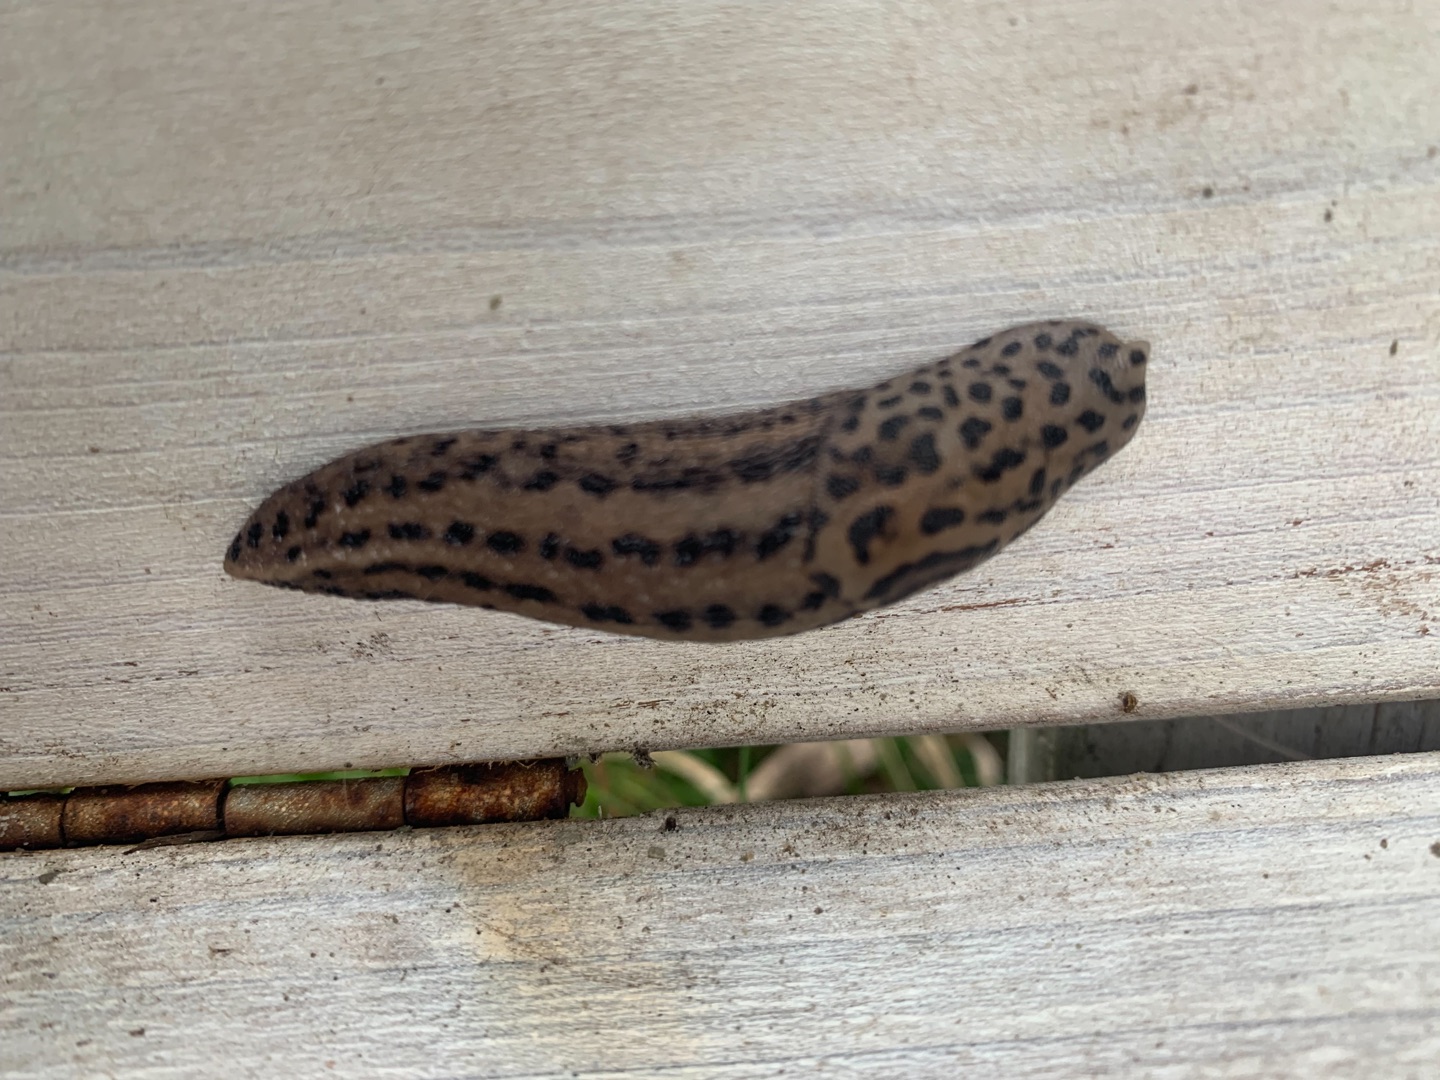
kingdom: Animalia
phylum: Mollusca
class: Gastropoda
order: Stylommatophora
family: Limacidae
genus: Limax
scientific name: Limax maximus
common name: Pantersnegl
